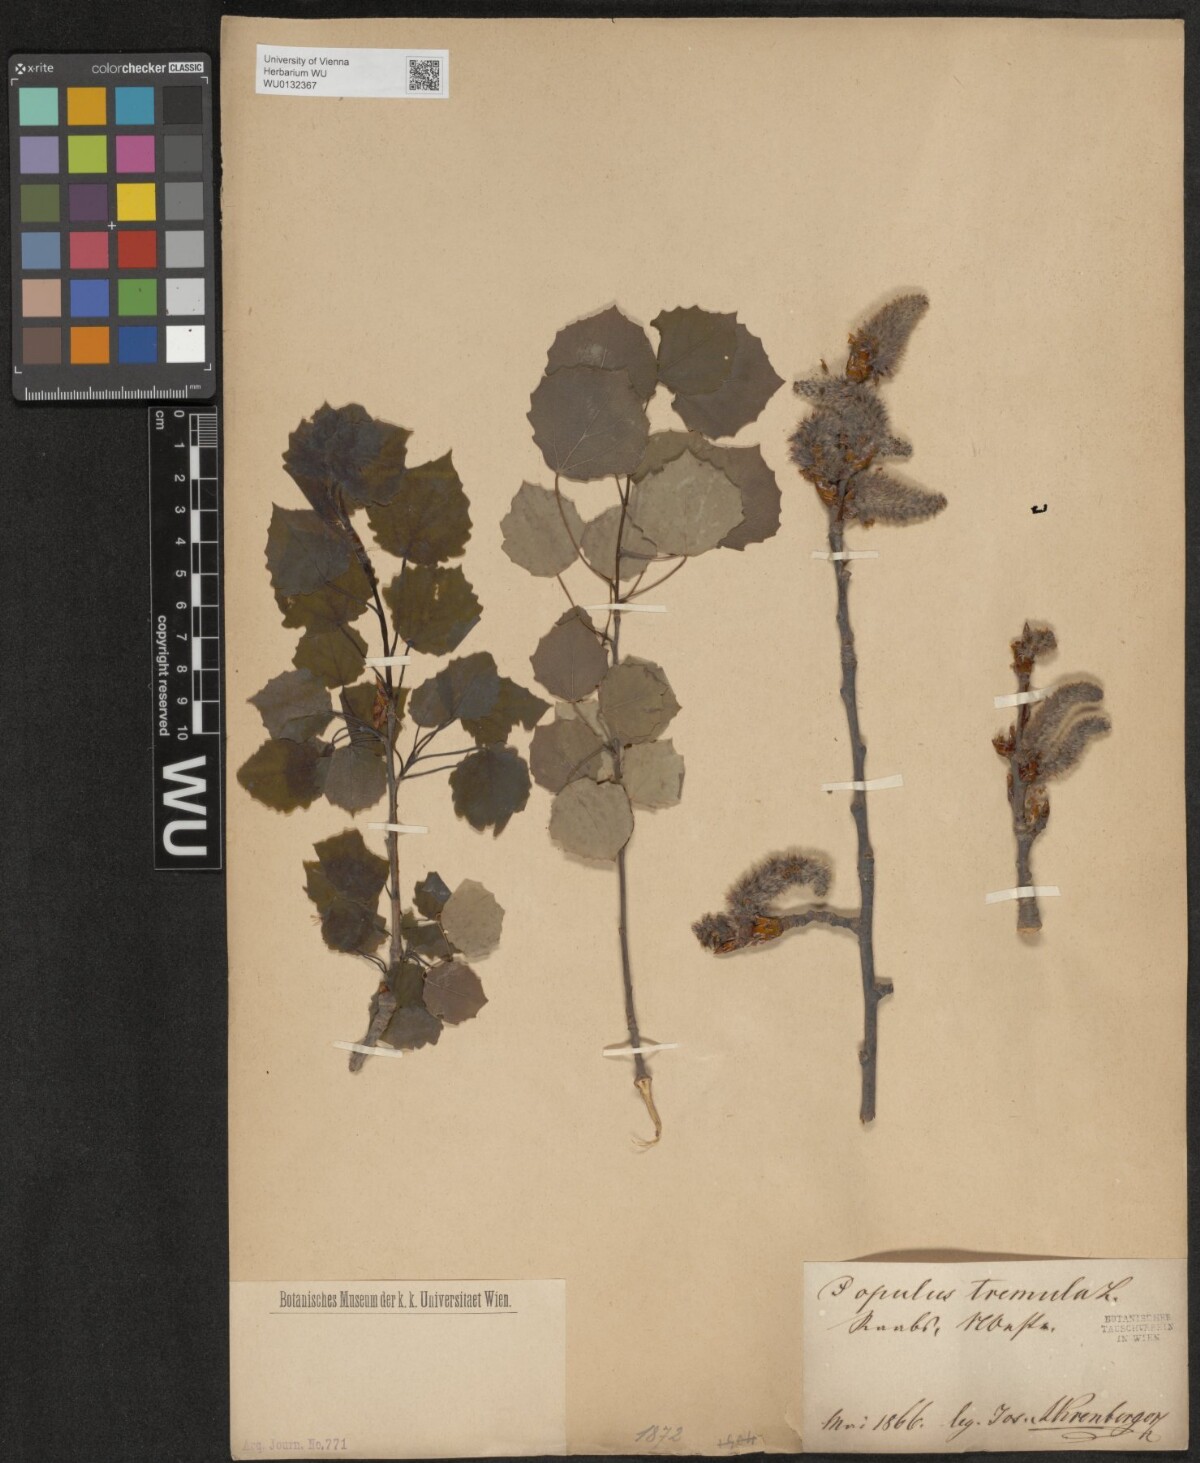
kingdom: Plantae
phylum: Tracheophyta
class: Magnoliopsida
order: Malpighiales
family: Salicaceae
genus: Populus
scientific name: Populus tremula
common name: European aspen
